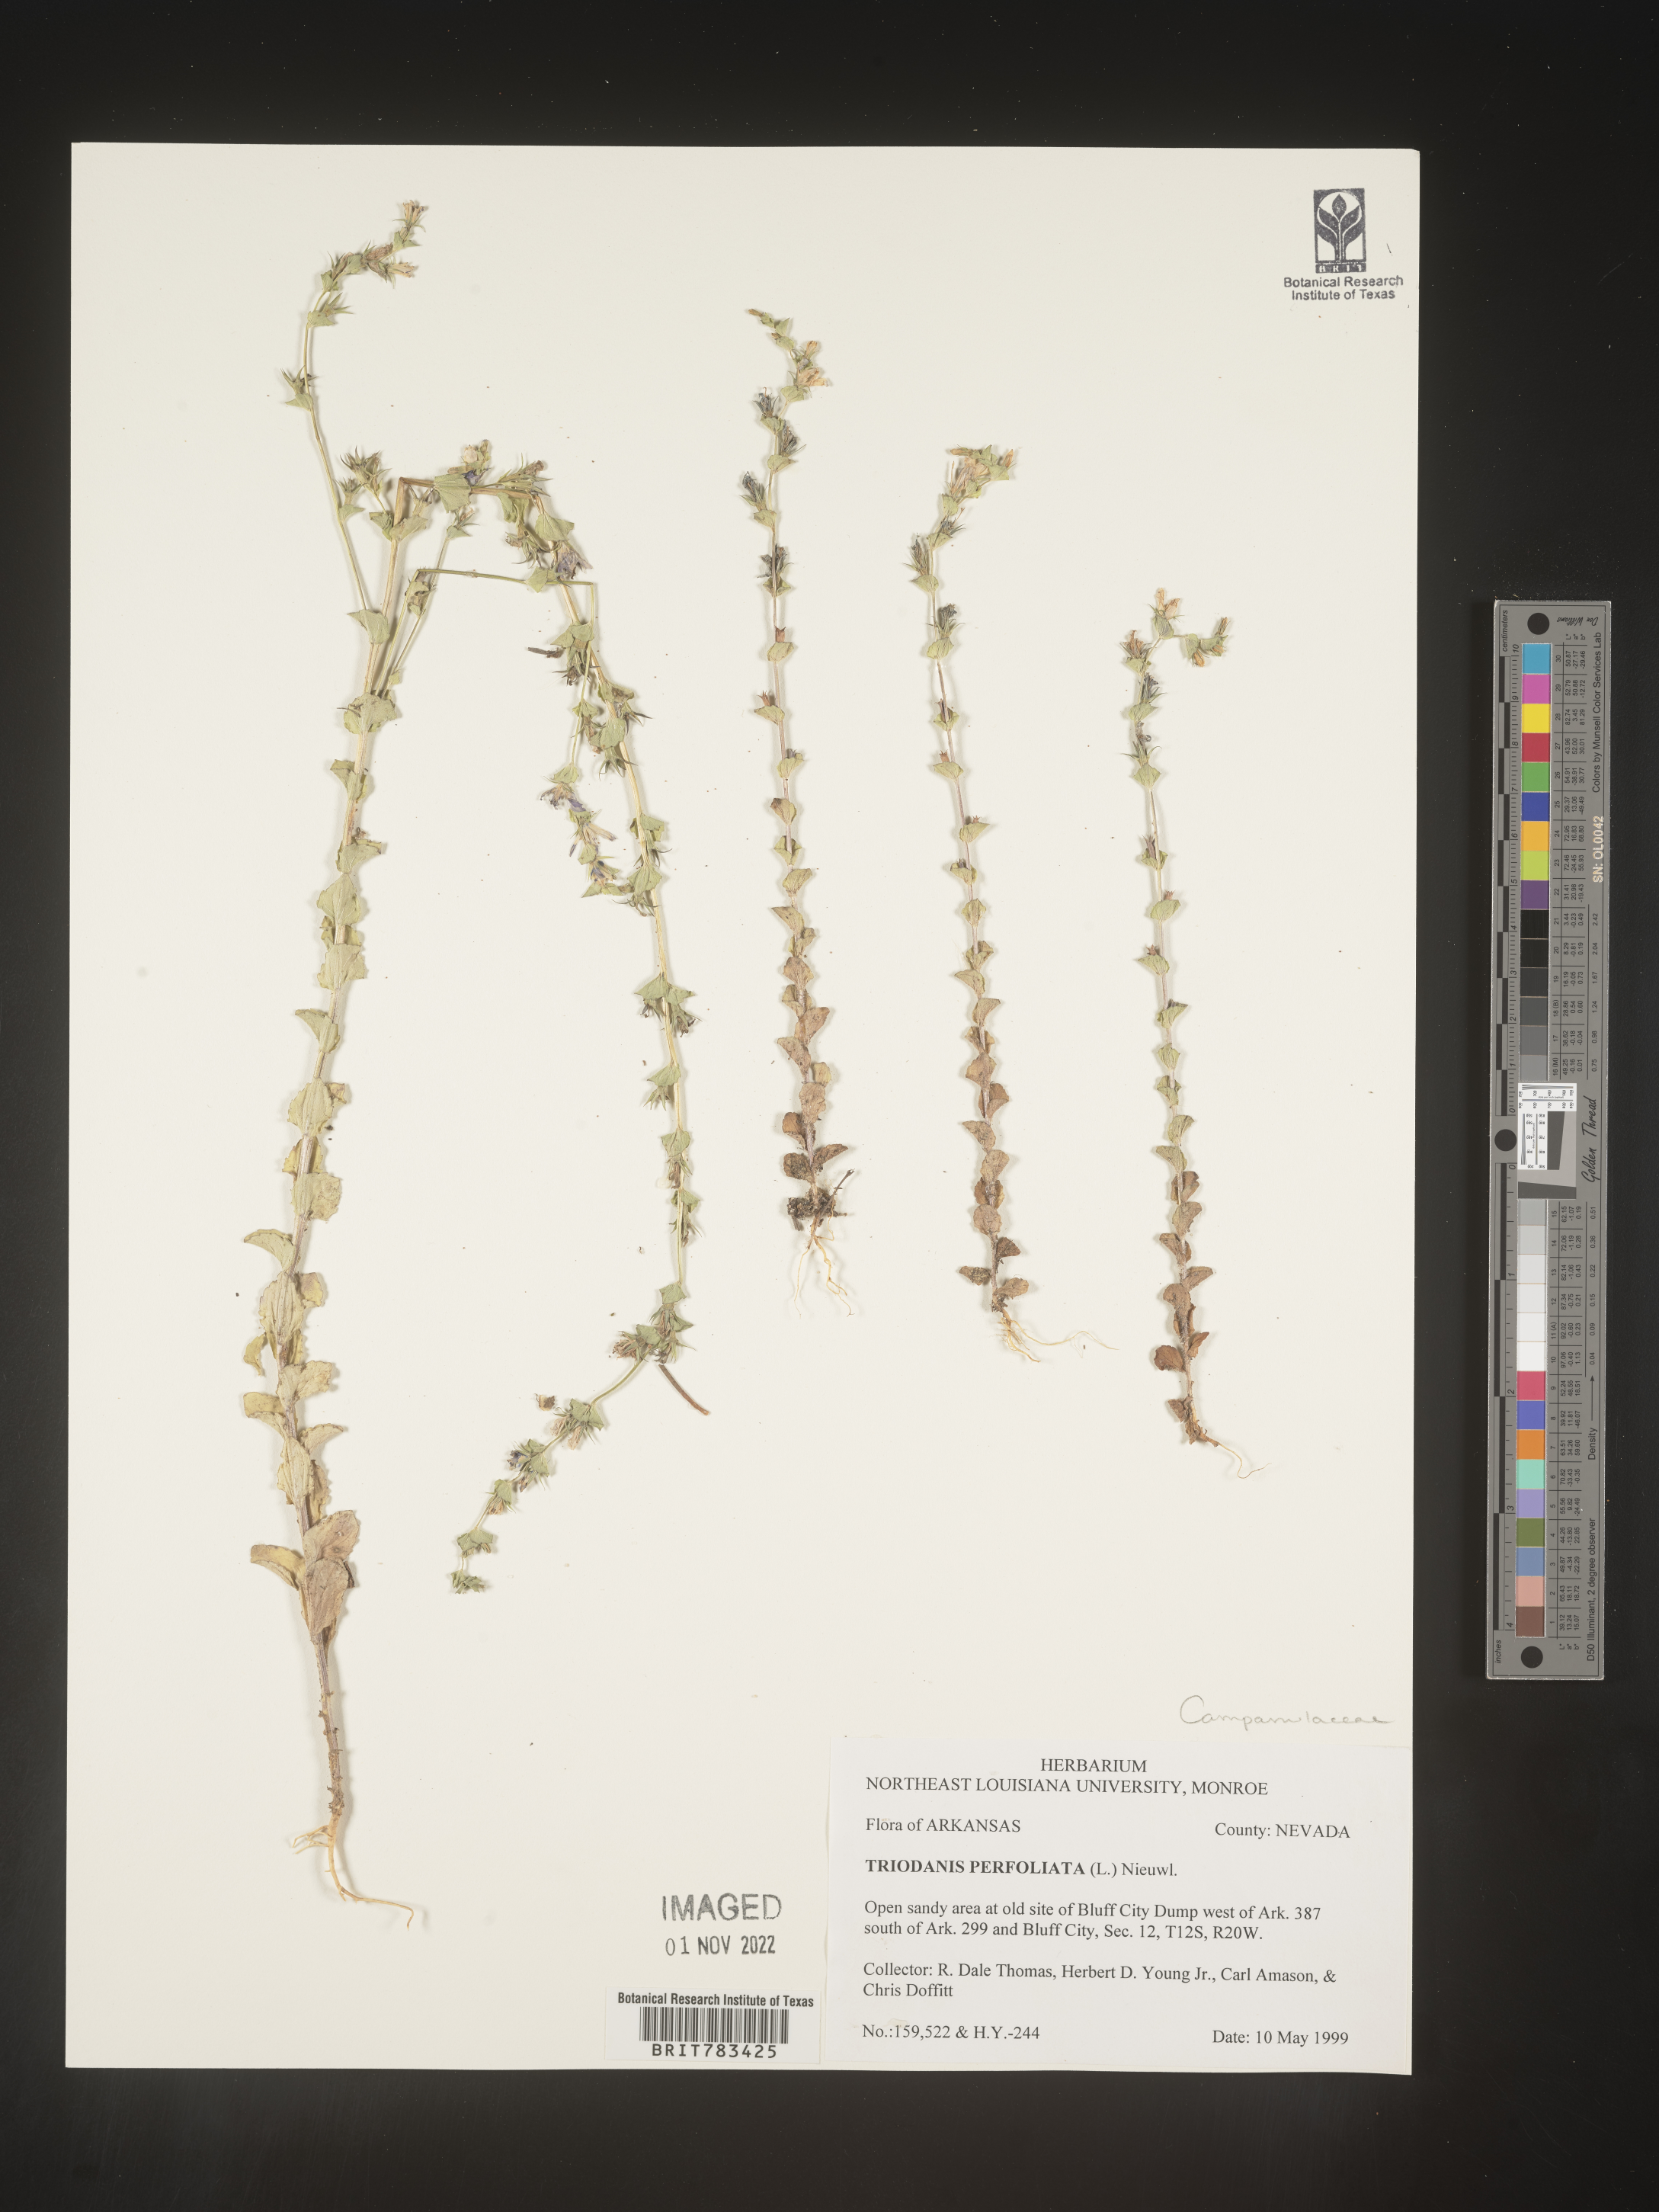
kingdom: Plantae
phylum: Tracheophyta
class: Magnoliopsida
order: Asterales
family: Campanulaceae
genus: Triodanis
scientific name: Triodanis perfoliata
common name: Clasping venus' looking-glass
